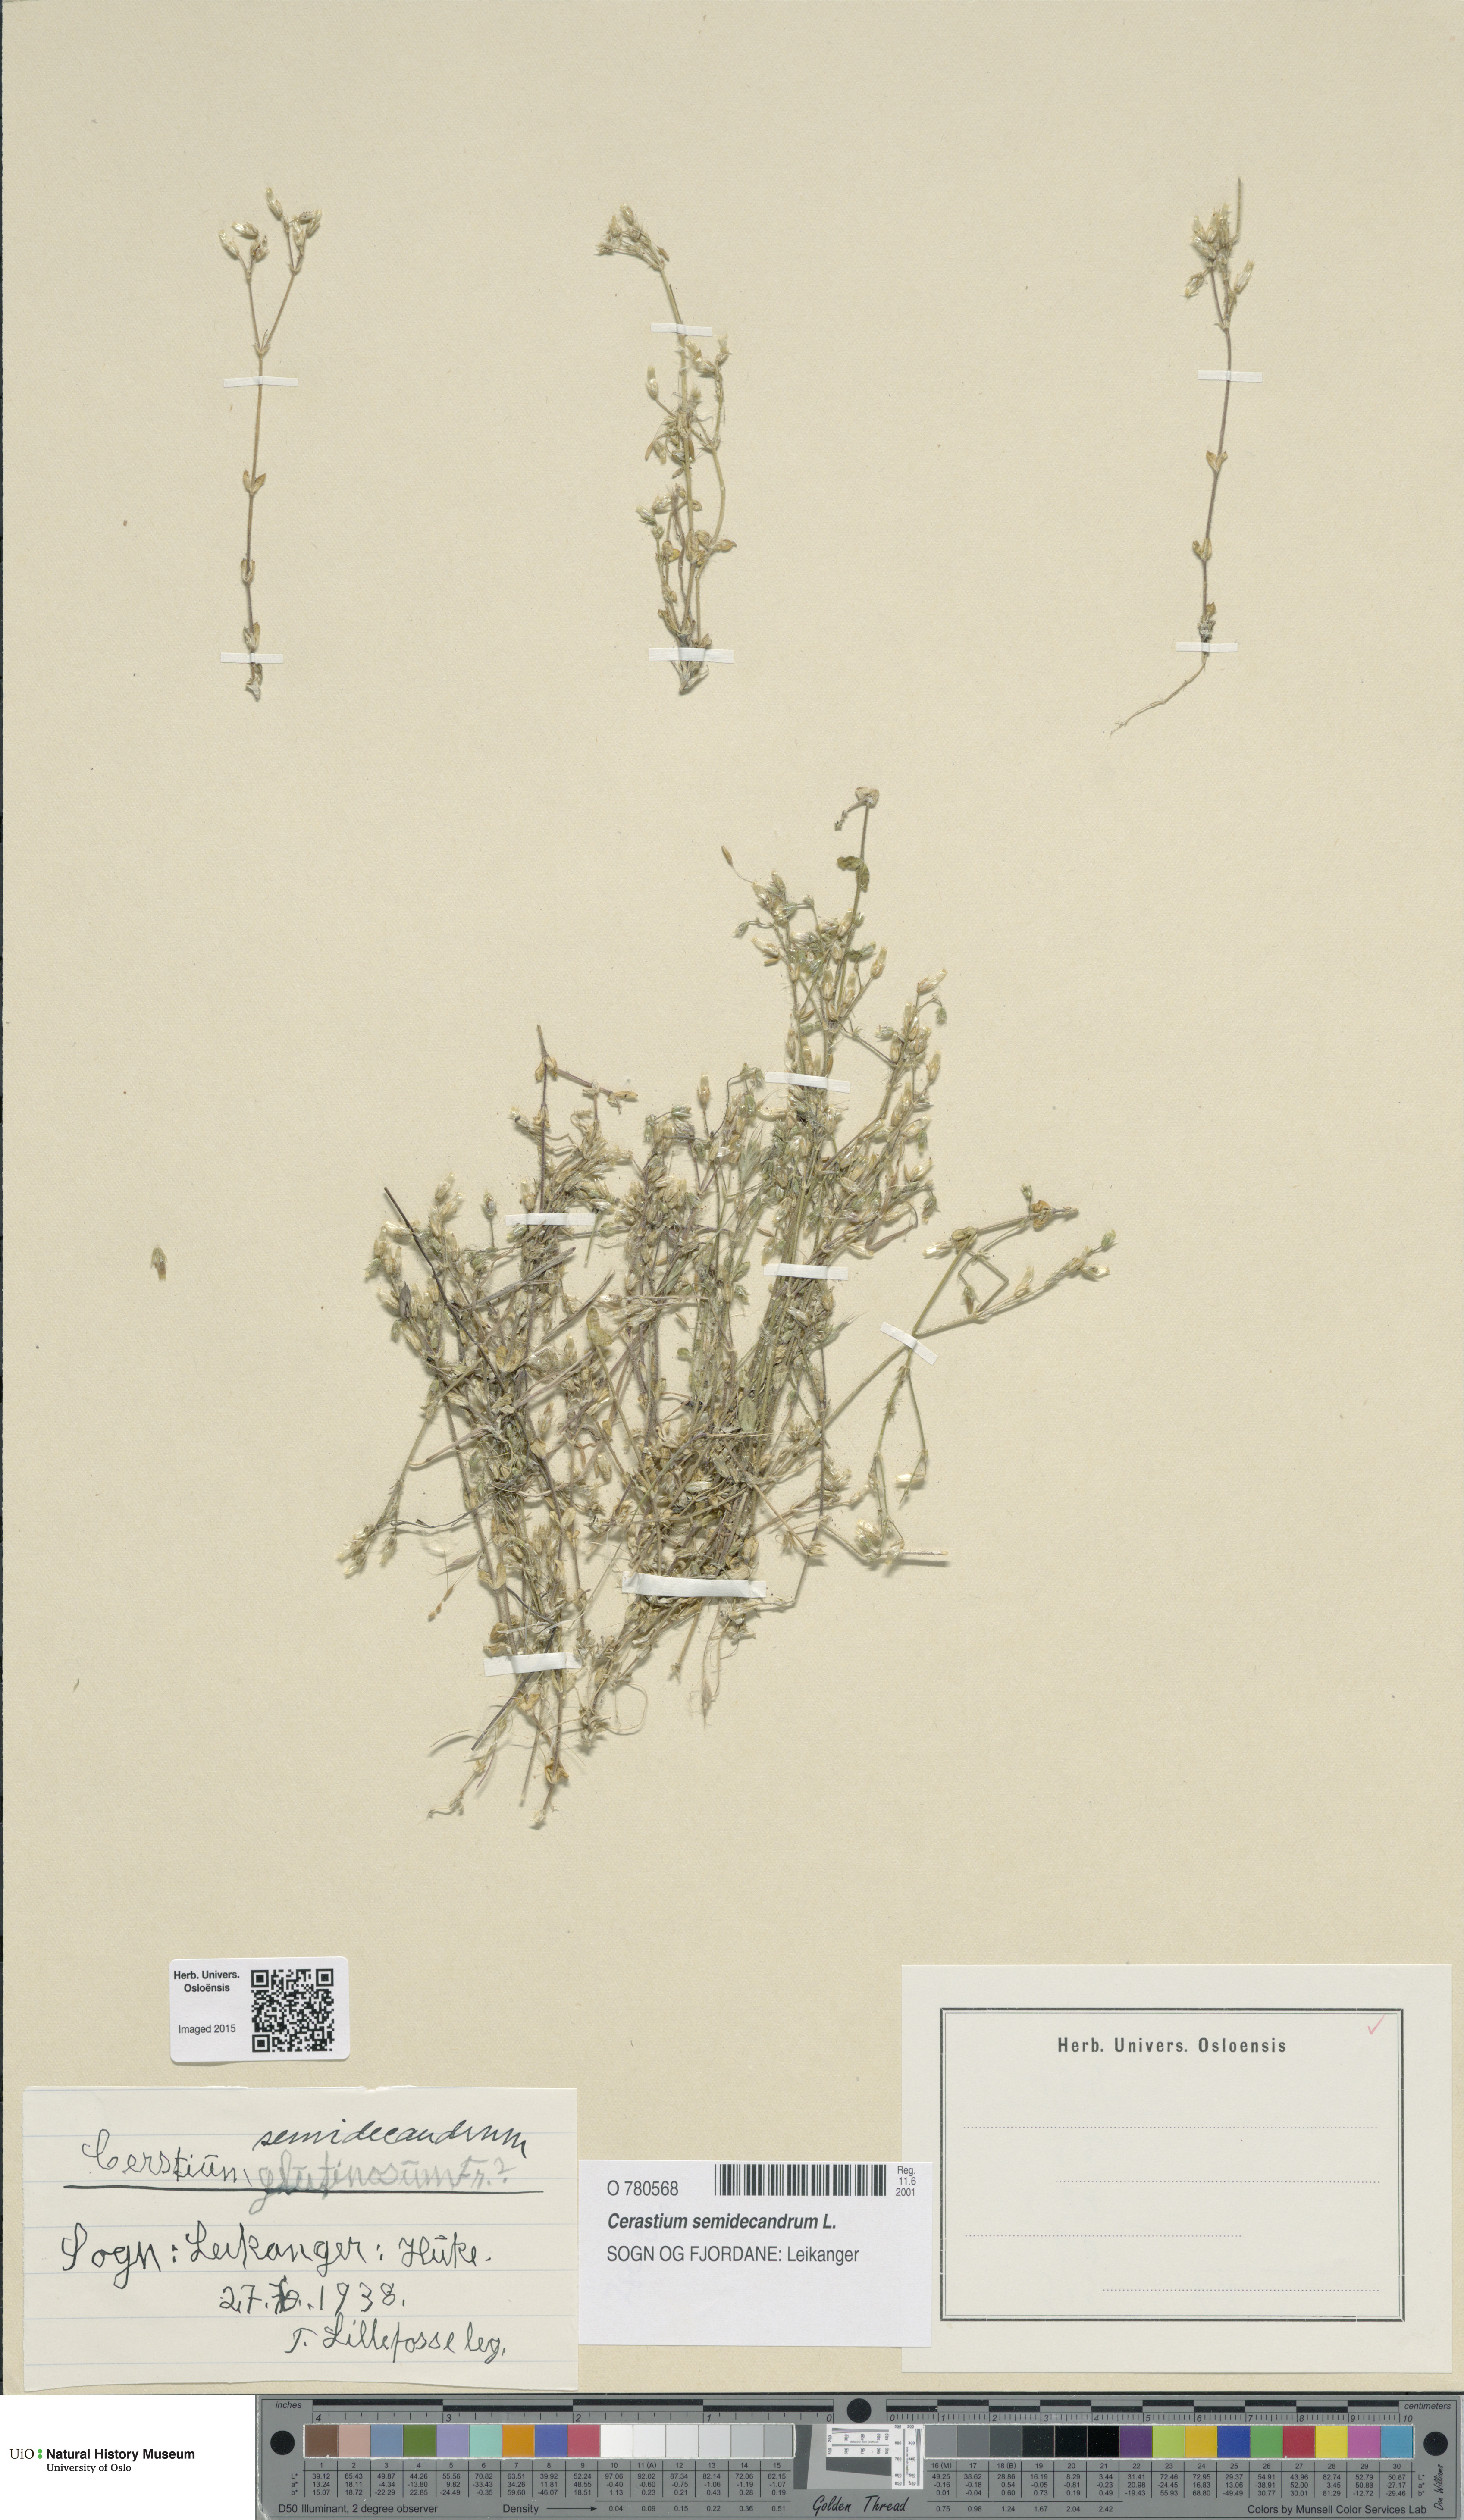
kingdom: Plantae
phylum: Tracheophyta
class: Magnoliopsida
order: Caryophyllales
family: Caryophyllaceae
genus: Cerastium
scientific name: Cerastium semidecandrum
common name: Little mouse-ear
